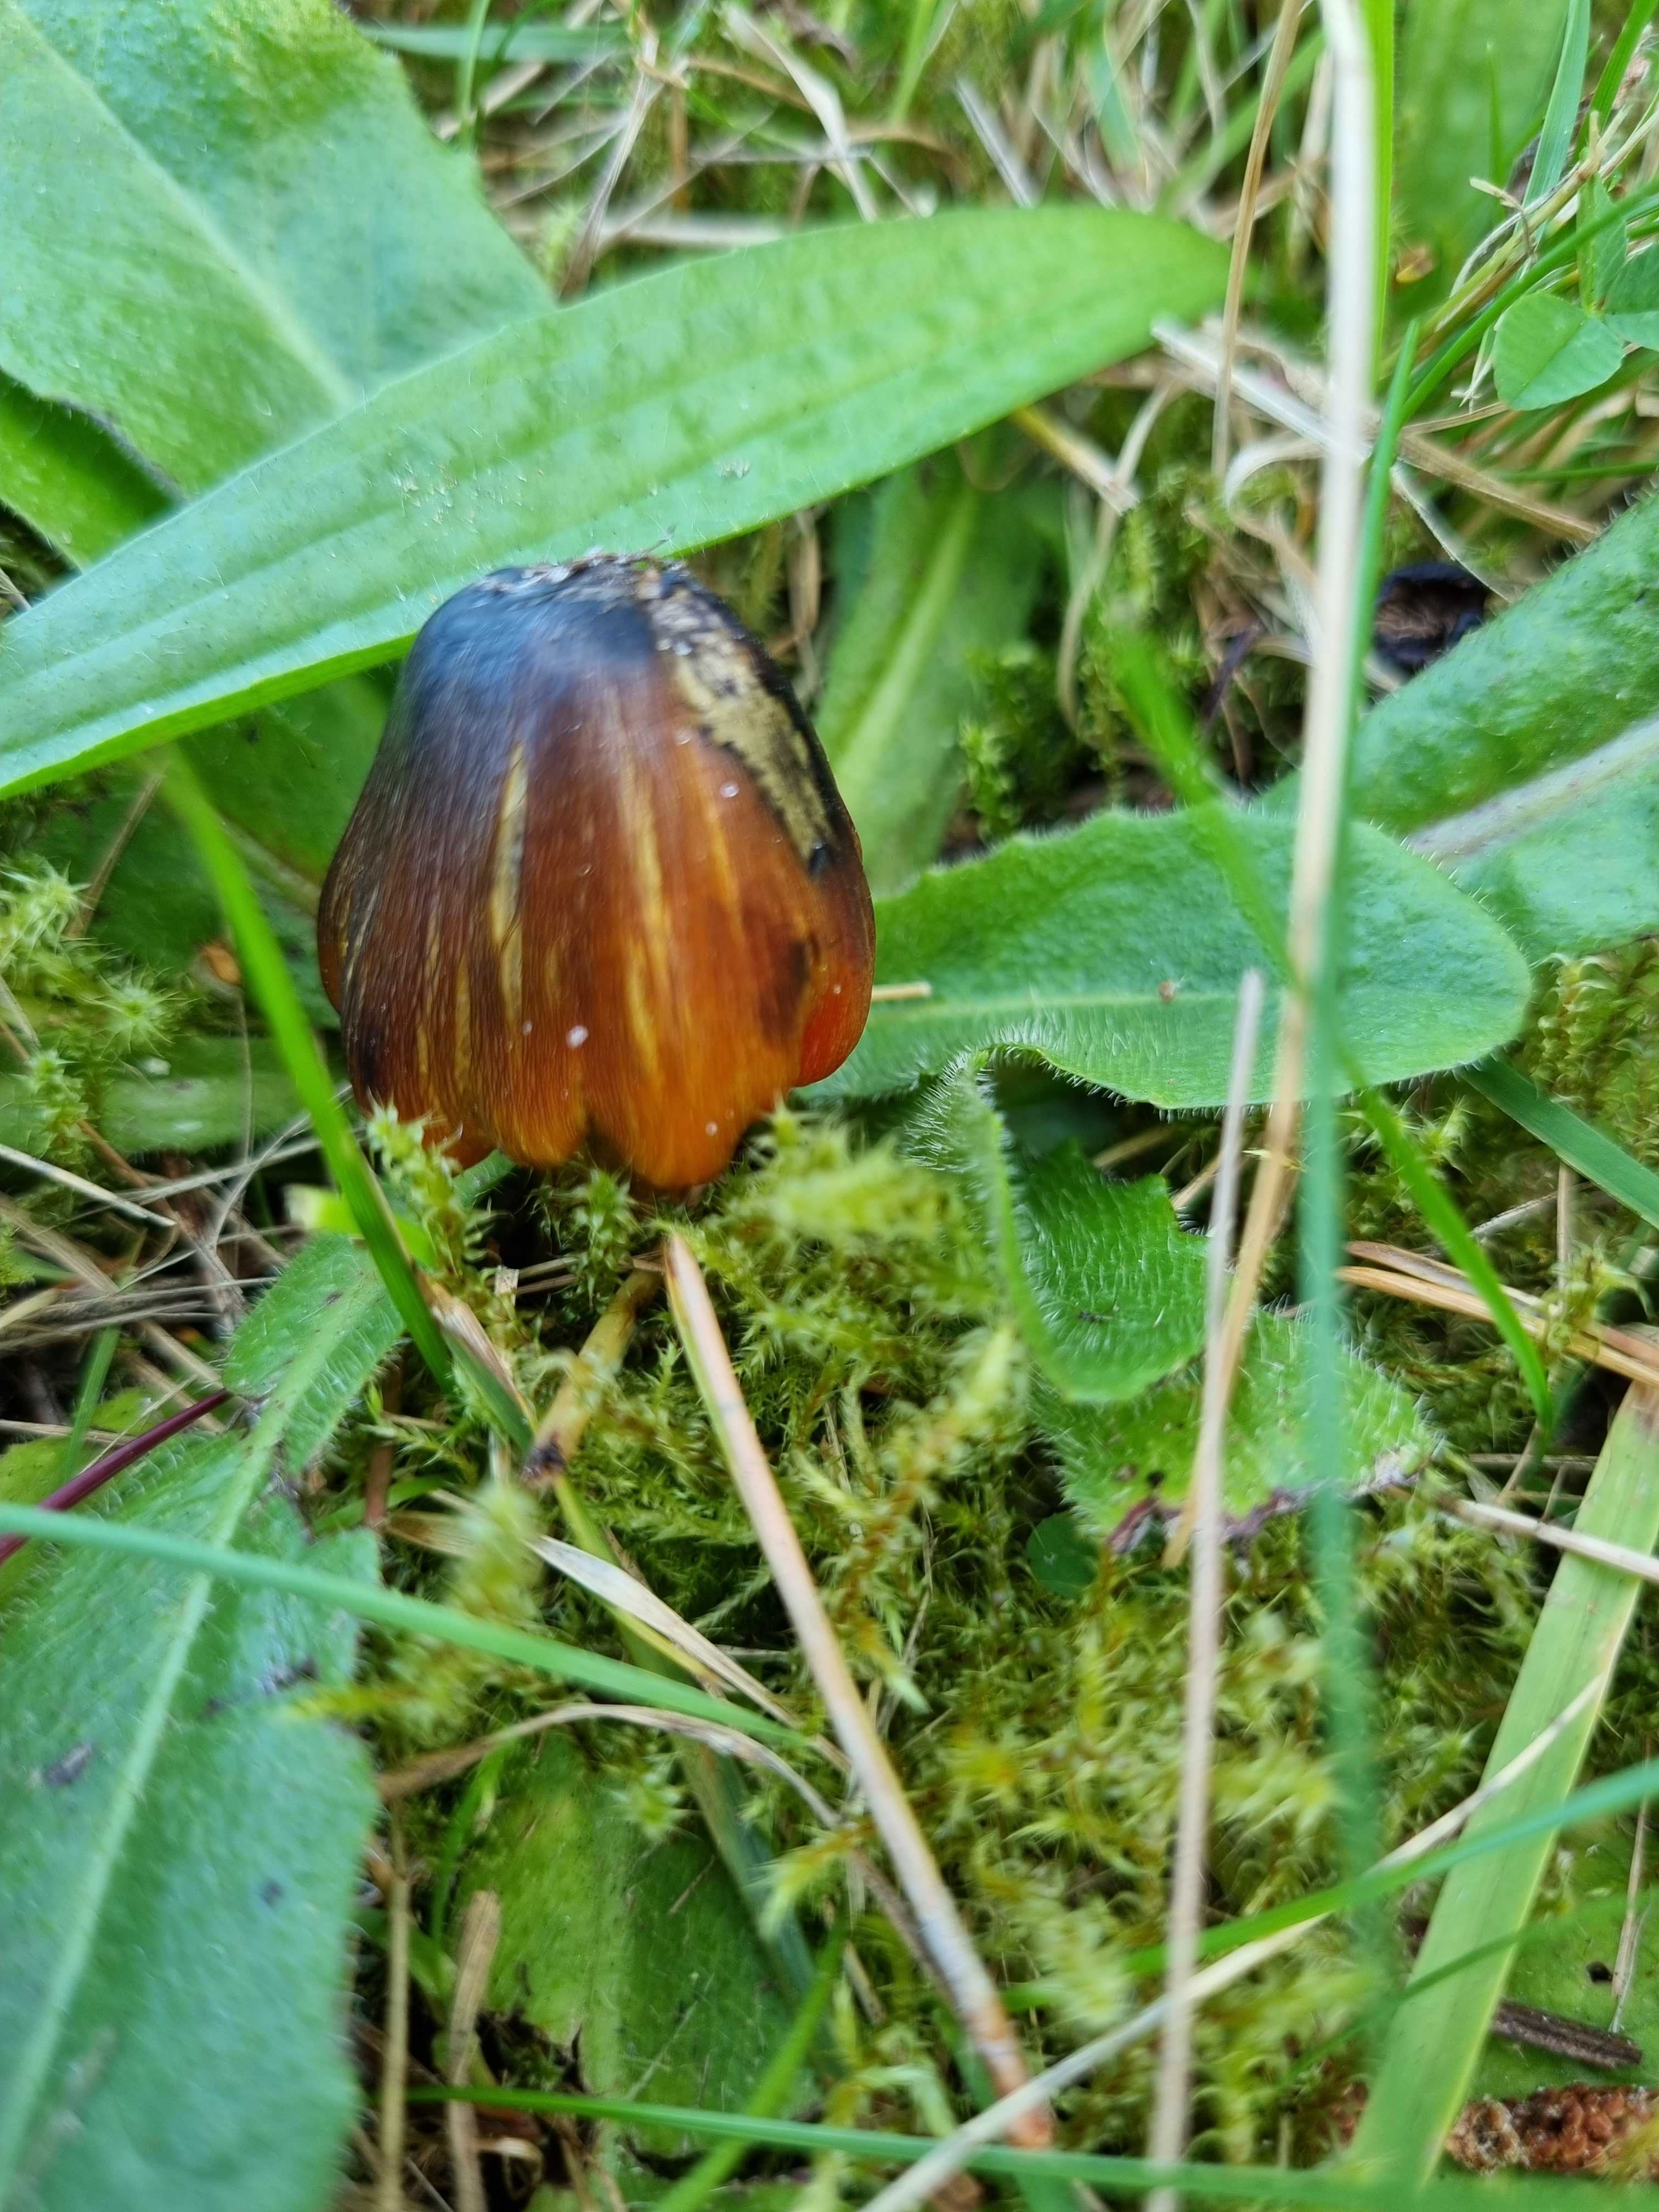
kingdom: Fungi
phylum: Basidiomycota
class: Agaricomycetes
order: Agaricales
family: Hygrophoraceae
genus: Hygrocybe
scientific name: Hygrocybe conica
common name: kegle-vokshat
